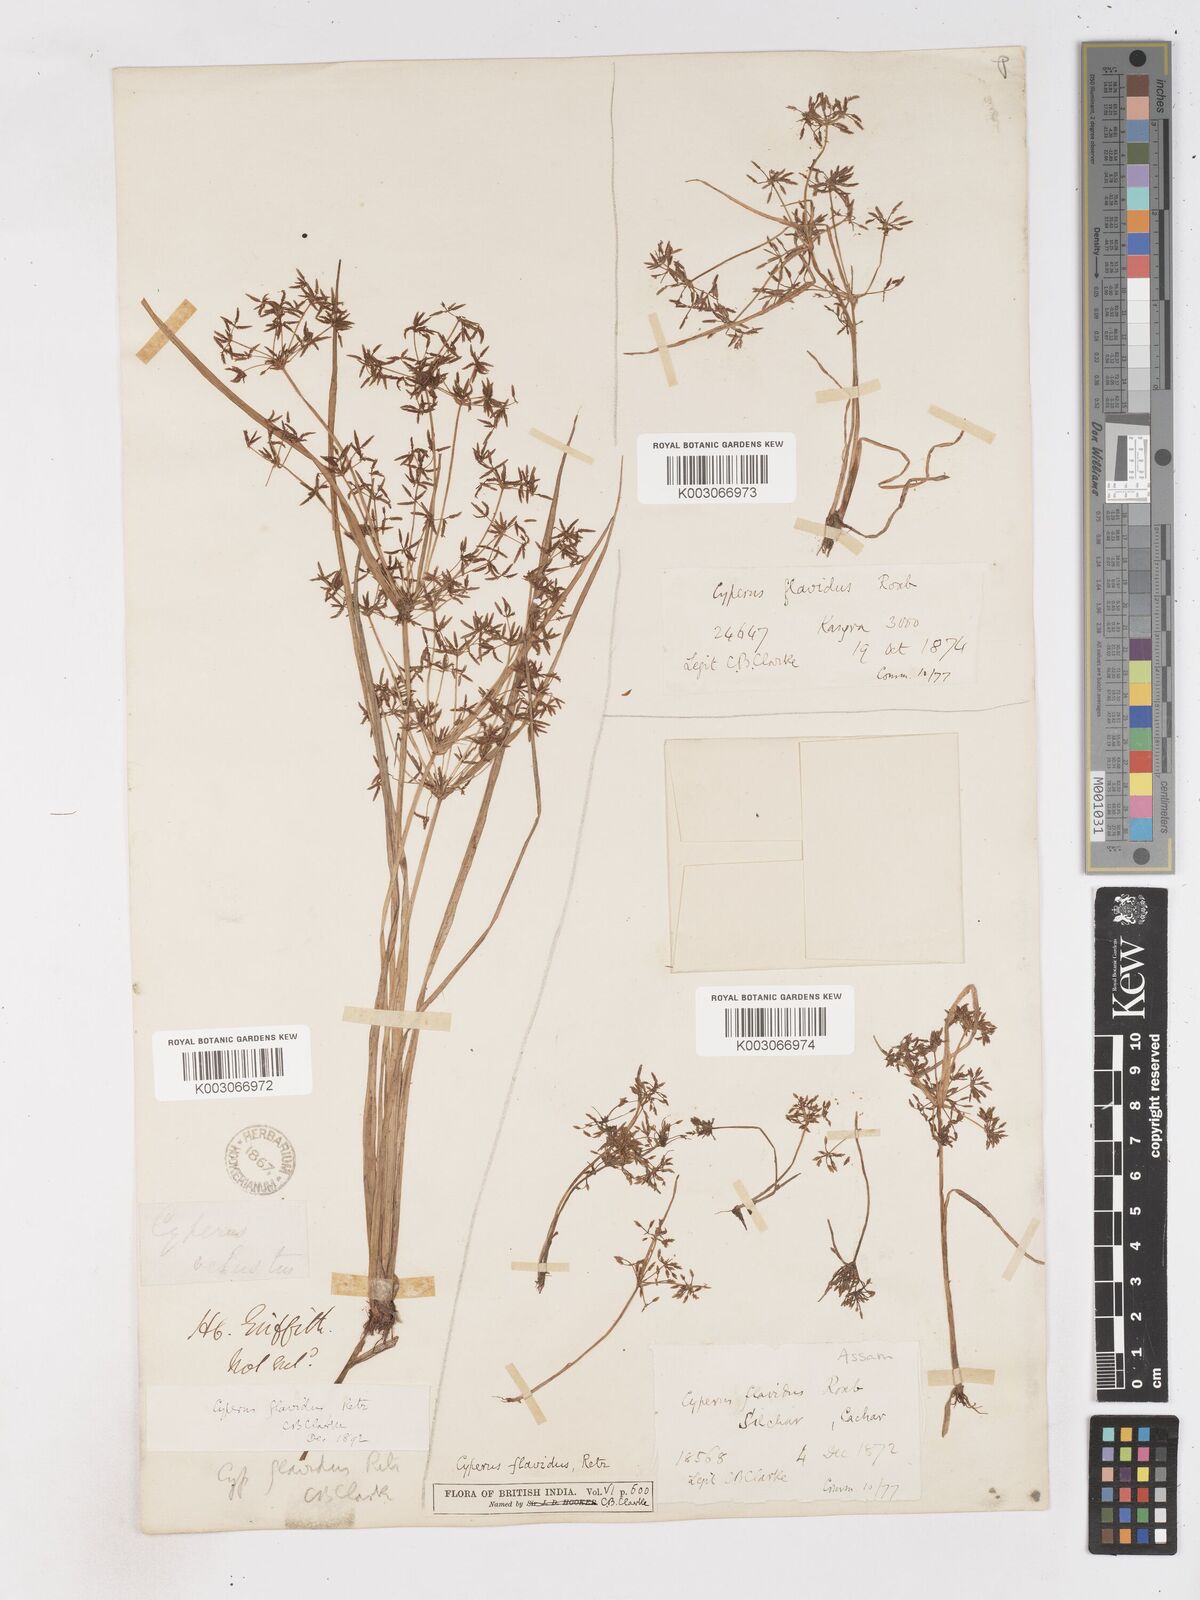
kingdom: Plantae
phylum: Tracheophyta
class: Liliopsida
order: Poales
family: Cyperaceae
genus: Cyperus
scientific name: Cyperus tenuispica
